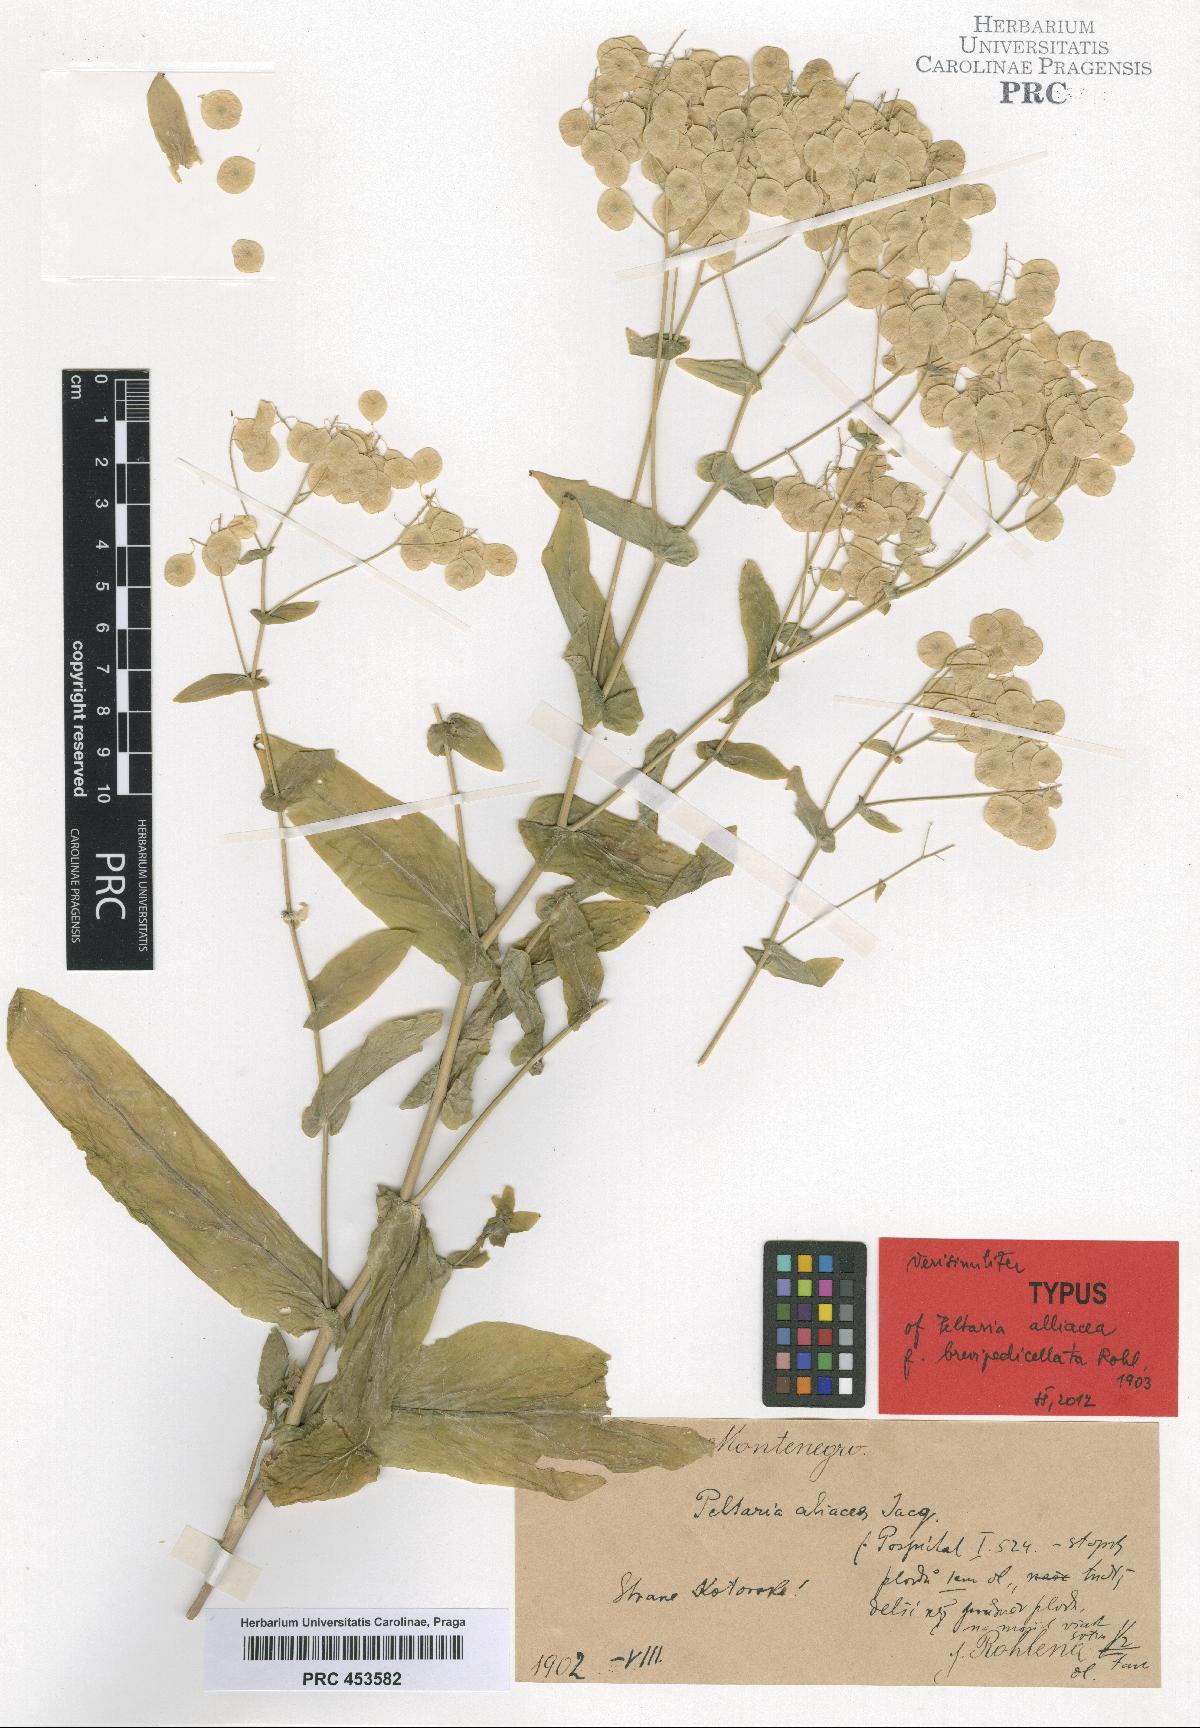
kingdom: Plantae
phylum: Tracheophyta
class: Magnoliopsida
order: Brassicales
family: Brassicaceae
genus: Peltaria
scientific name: Peltaria alliacea
